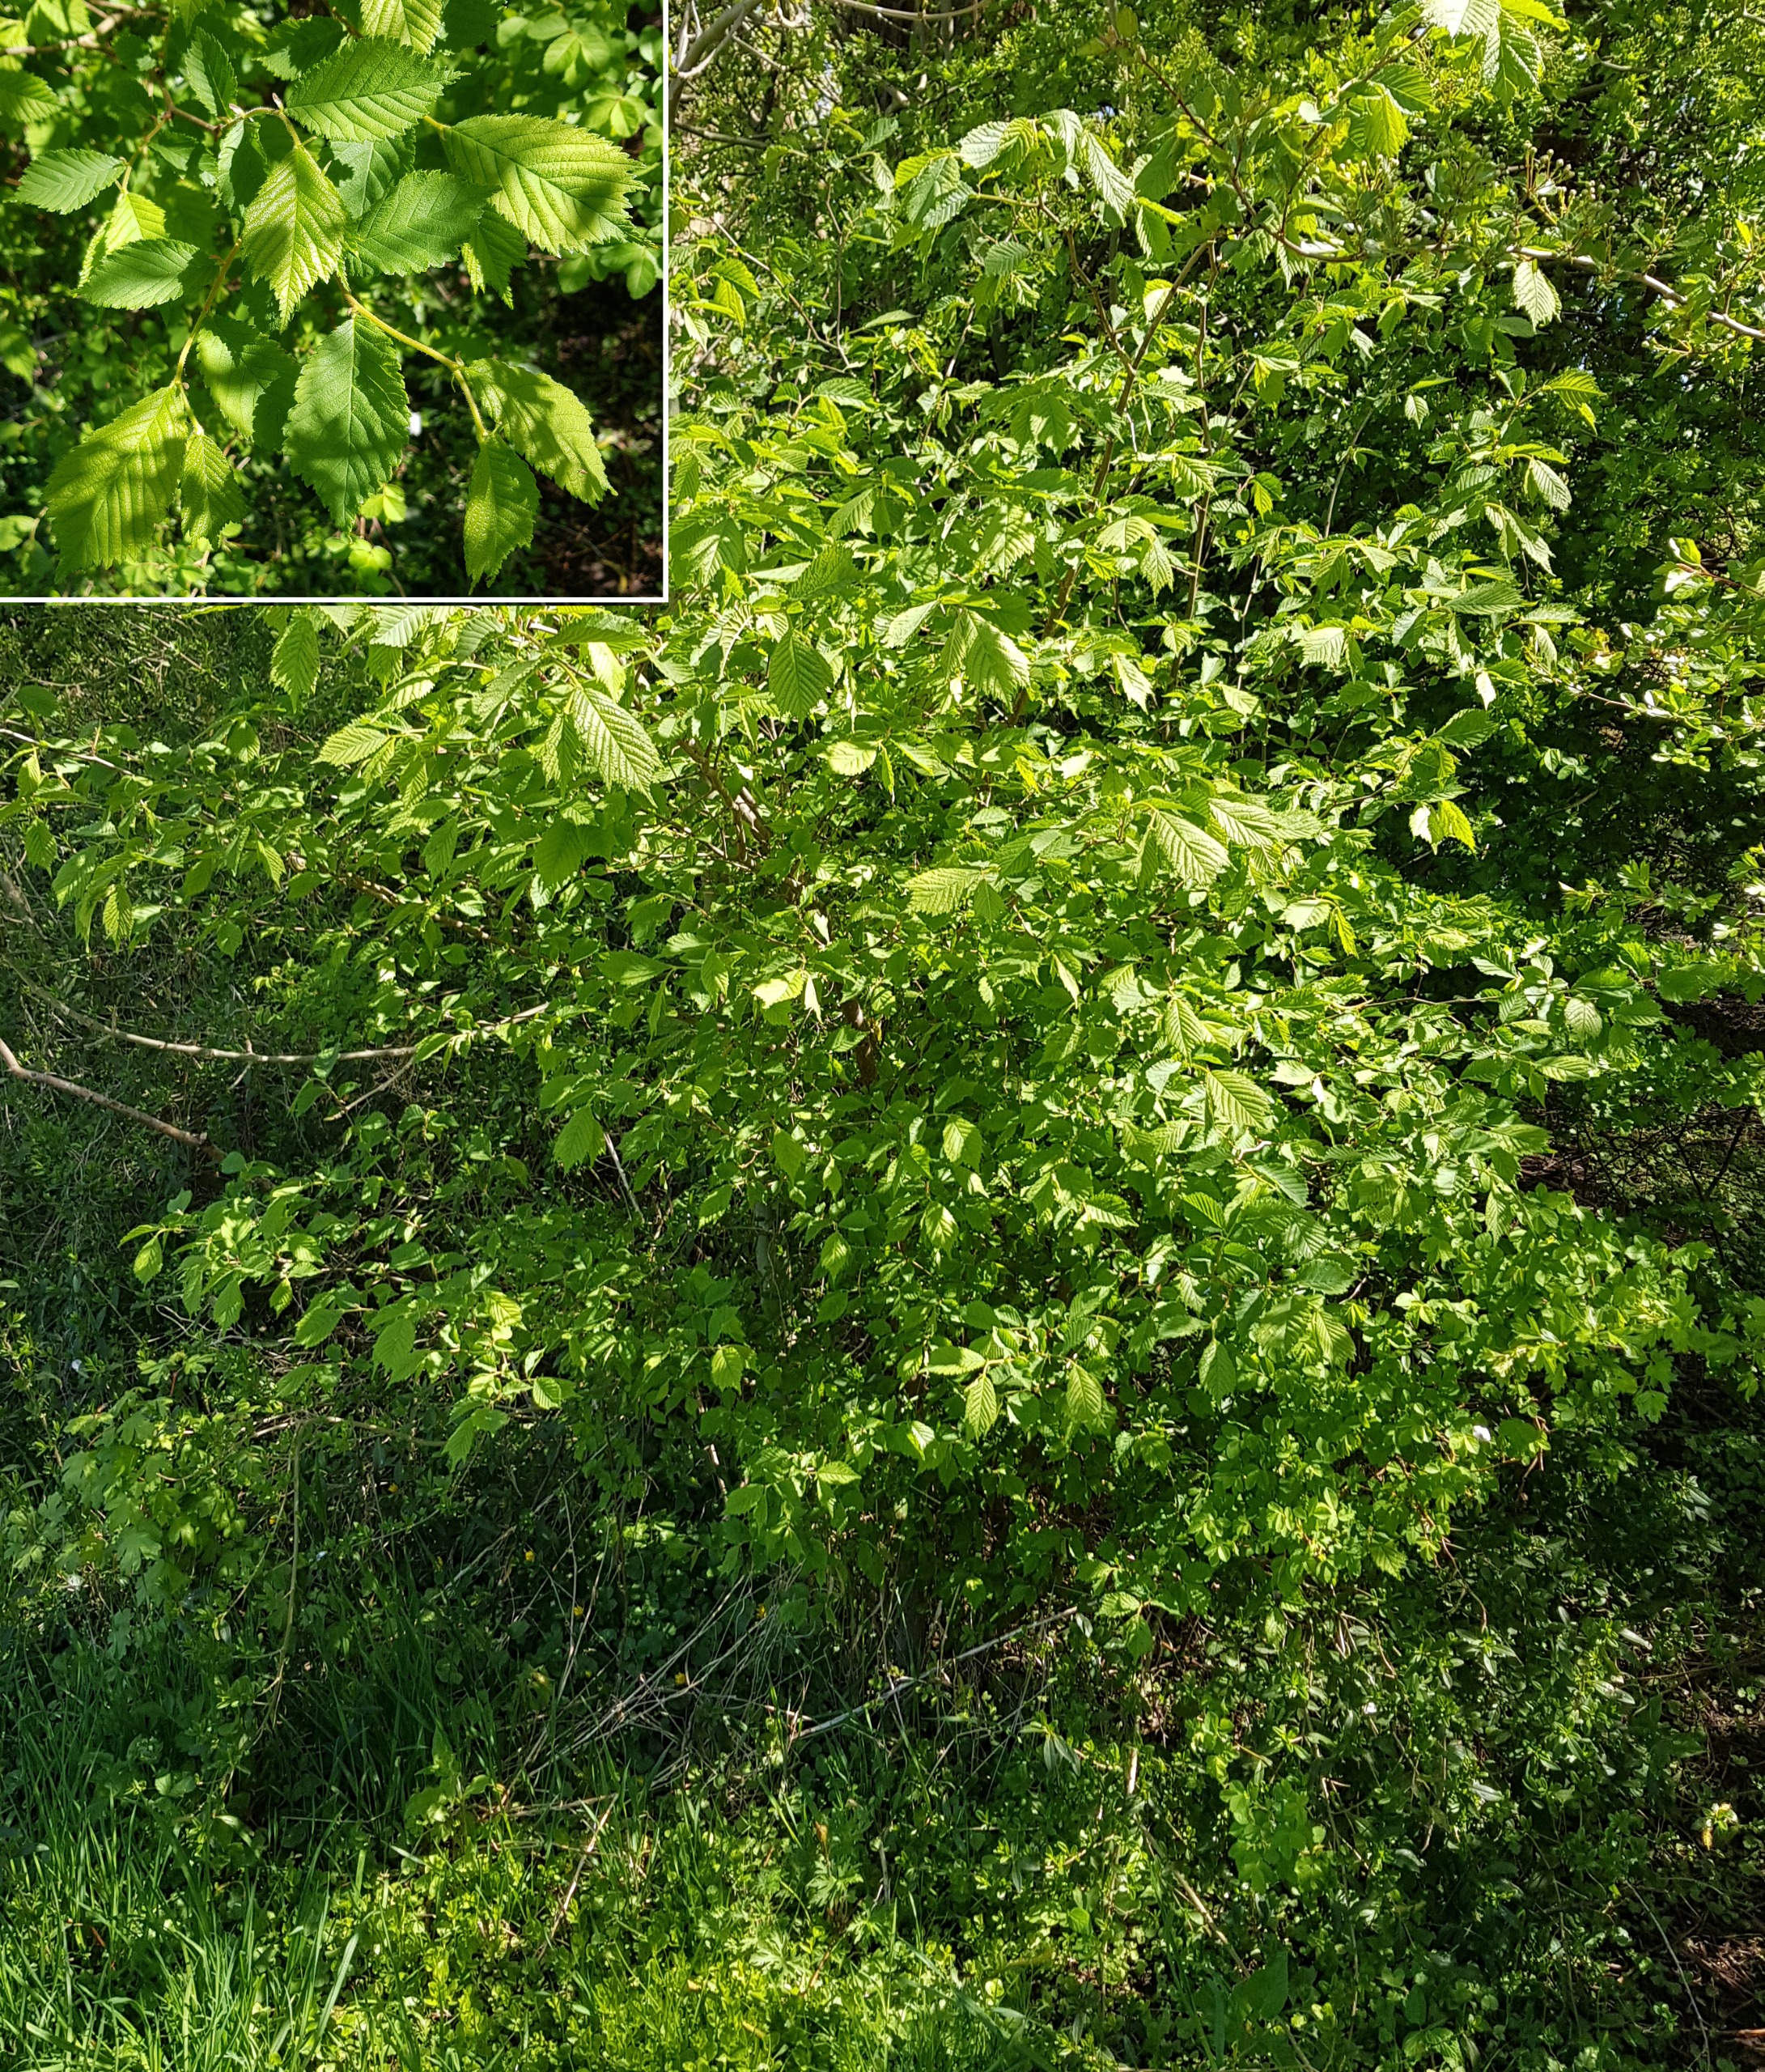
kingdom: Plantae
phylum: Tracheophyta
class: Magnoliopsida
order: Rosales
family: Ulmaceae
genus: Ulmus
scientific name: Ulmus glabra
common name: Skov-elm/storbladet elm
